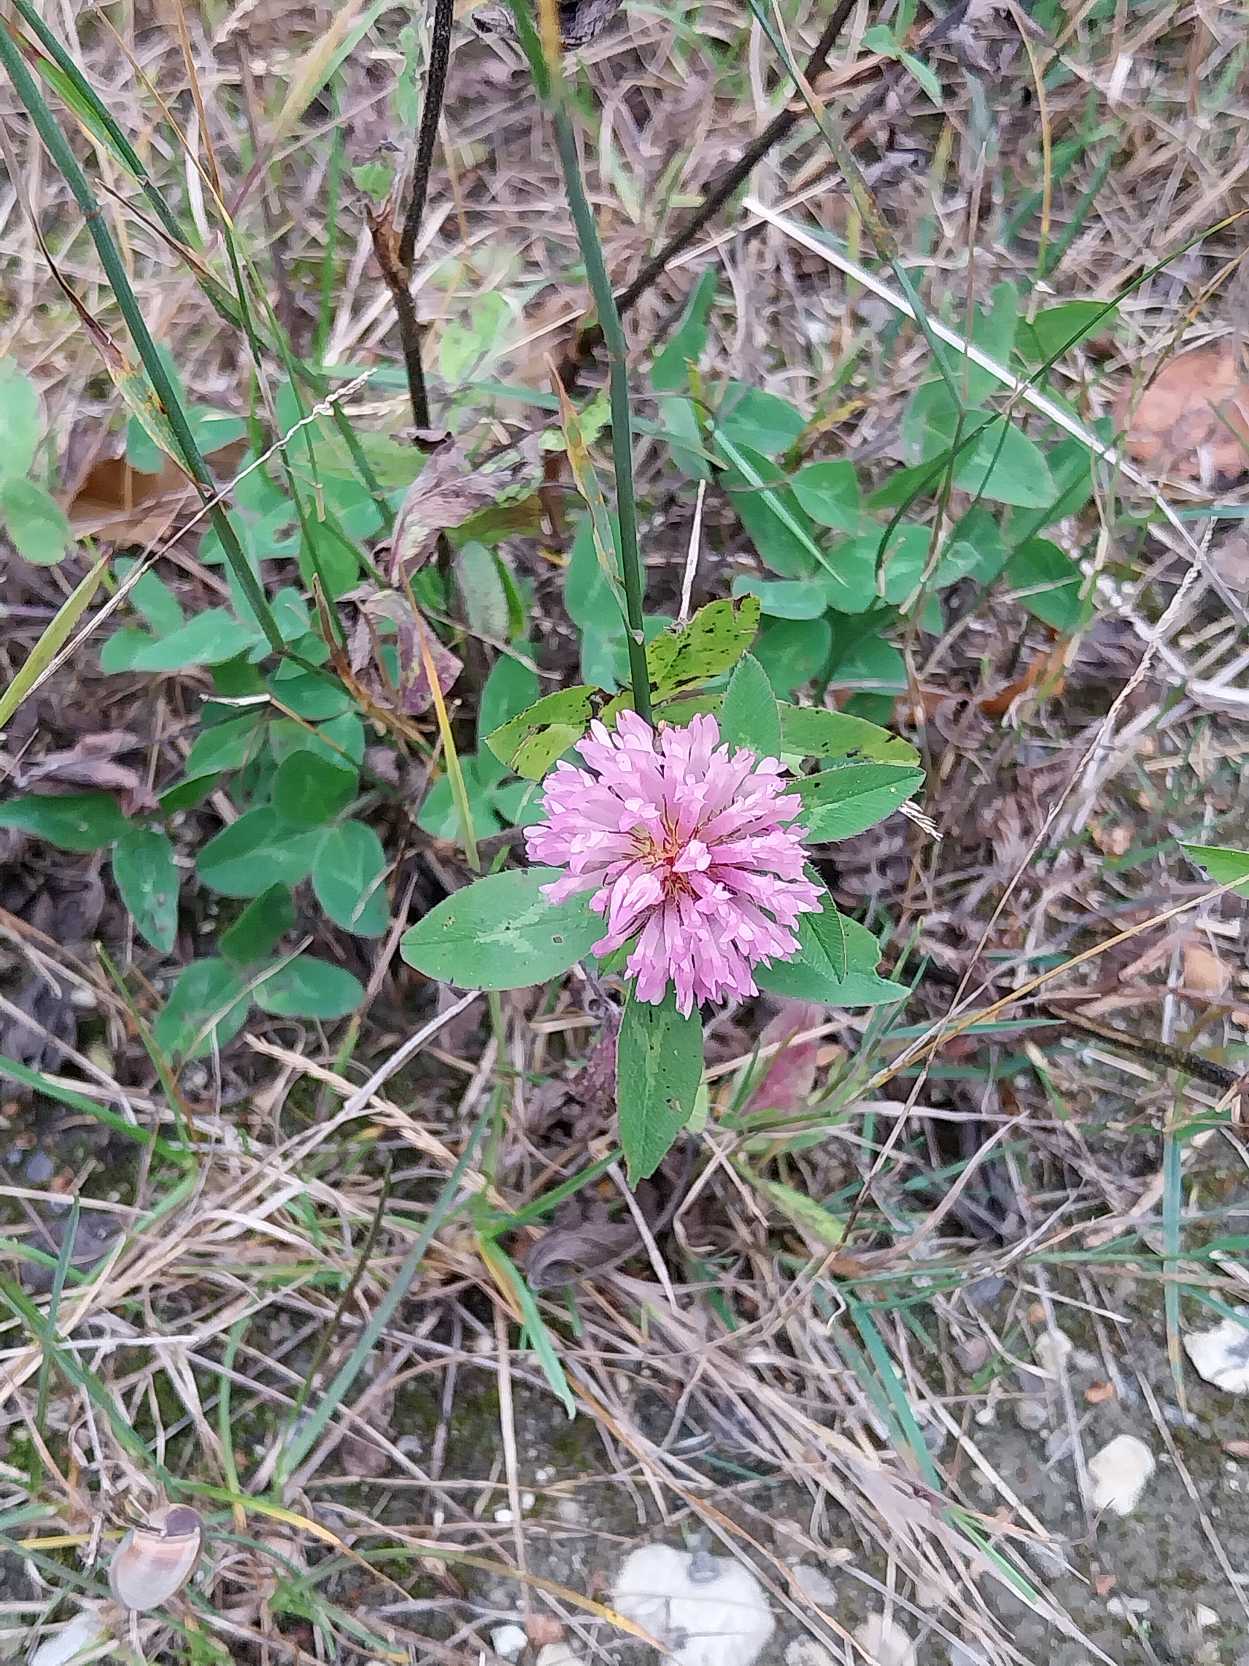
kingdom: Plantae
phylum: Tracheophyta
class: Magnoliopsida
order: Fabales
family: Fabaceae
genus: Trifolium
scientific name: Trifolium pratense
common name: Rød-kløver
